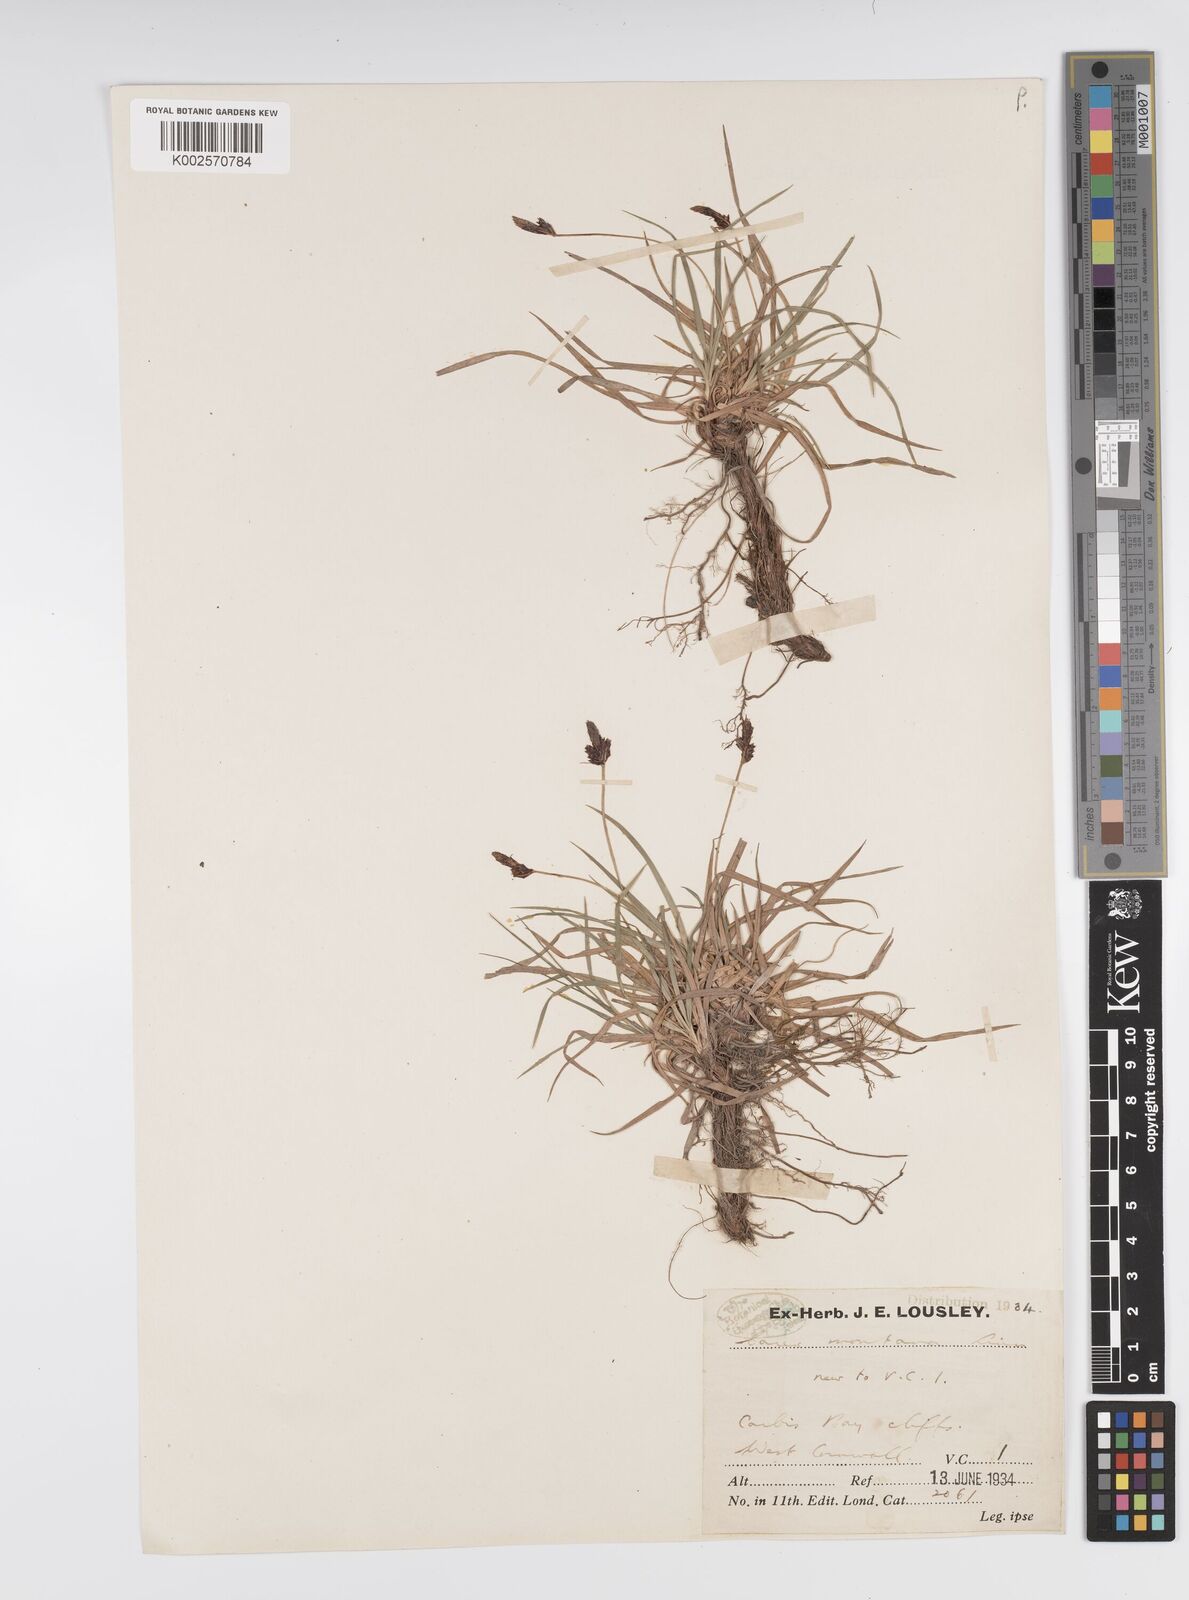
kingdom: Plantae
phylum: Tracheophyta
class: Liliopsida
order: Poales
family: Cyperaceae
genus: Carex
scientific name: Carex montana
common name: Soft-leaved sedge
